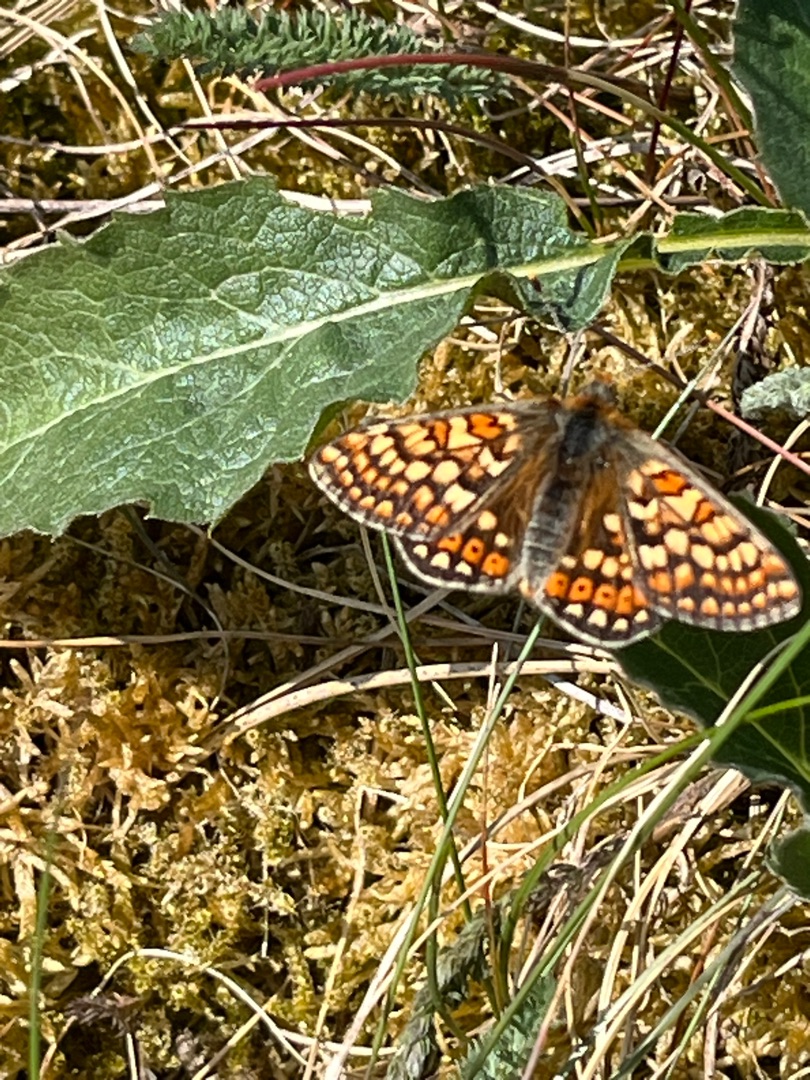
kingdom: Animalia
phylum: Arthropoda
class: Insecta
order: Lepidoptera
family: Nymphalidae
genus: Euphydryas
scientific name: Euphydryas aurinia
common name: Hedepletvinge
